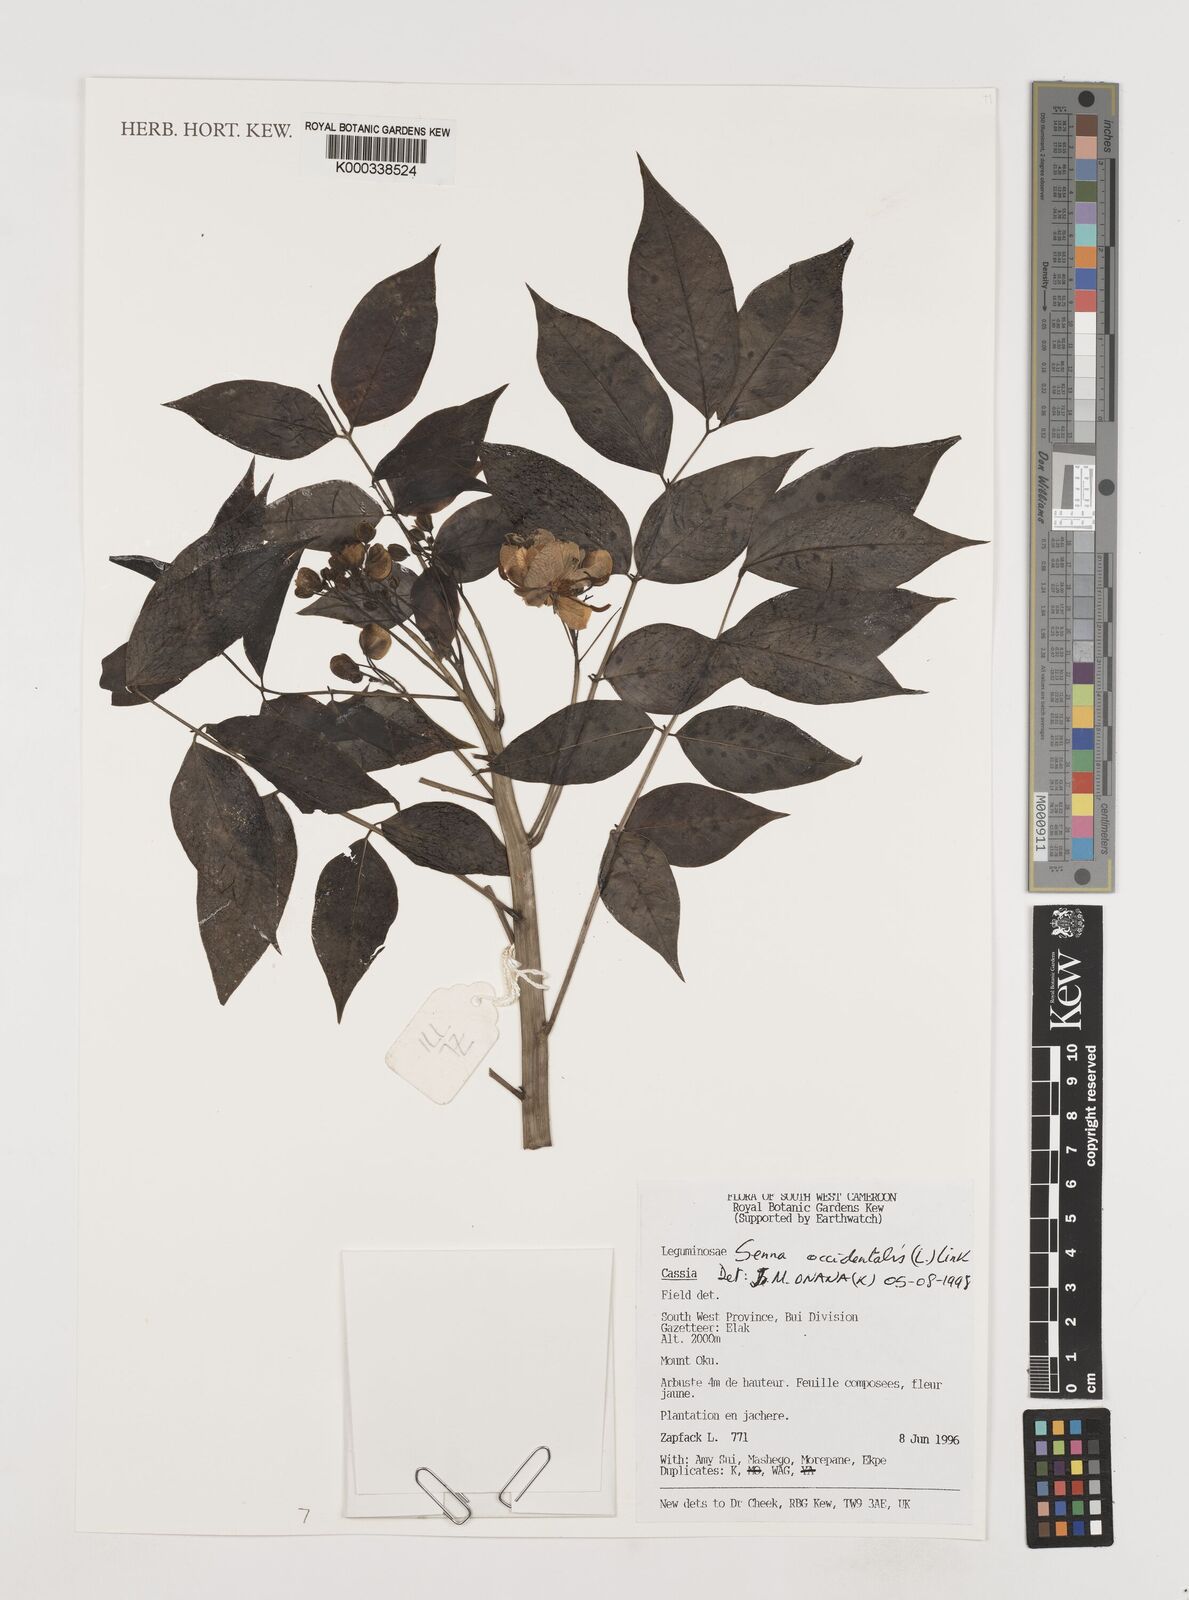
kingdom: Plantae
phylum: Tracheophyta
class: Magnoliopsida
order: Fabales
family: Fabaceae
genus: Senna
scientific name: Senna occidentalis
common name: Septicweed
